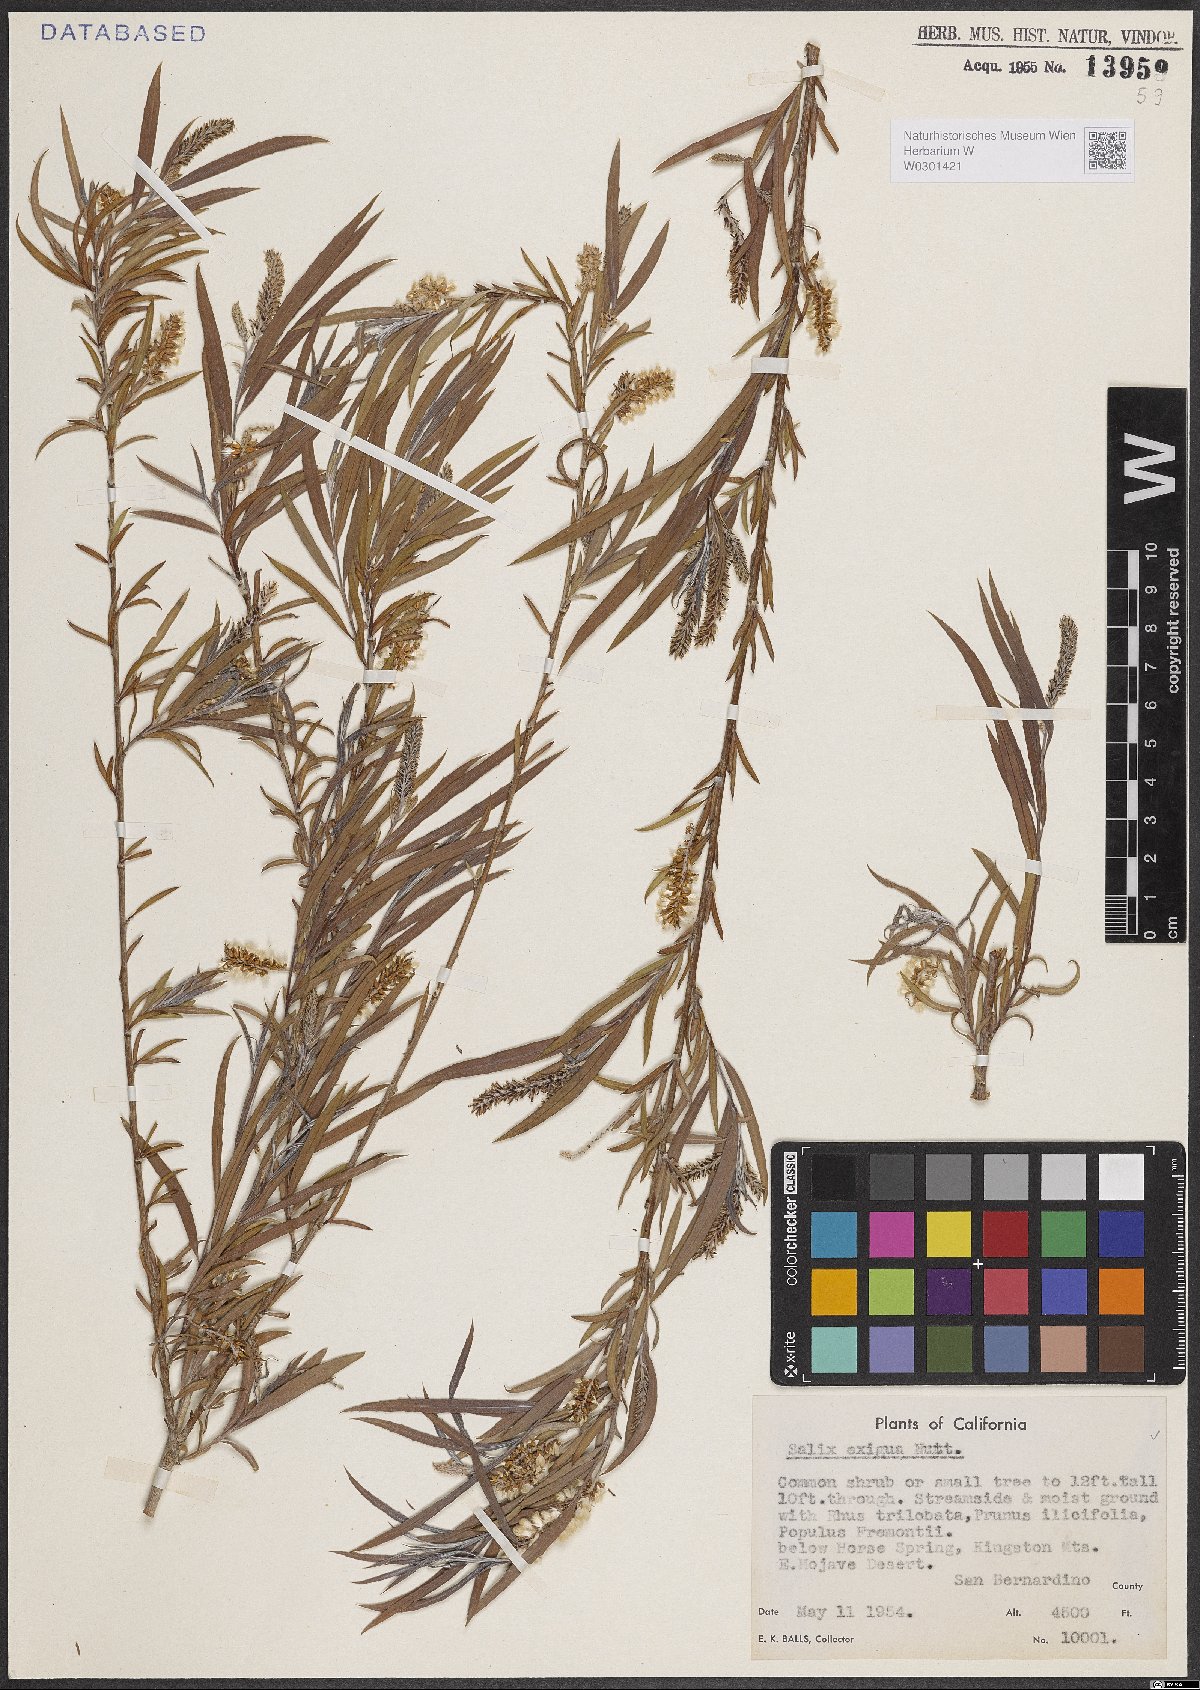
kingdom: Plantae
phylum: Tracheophyta
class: Magnoliopsida
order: Malpighiales
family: Salicaceae
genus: Salix
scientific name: Salix exigua
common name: Coyote willow
